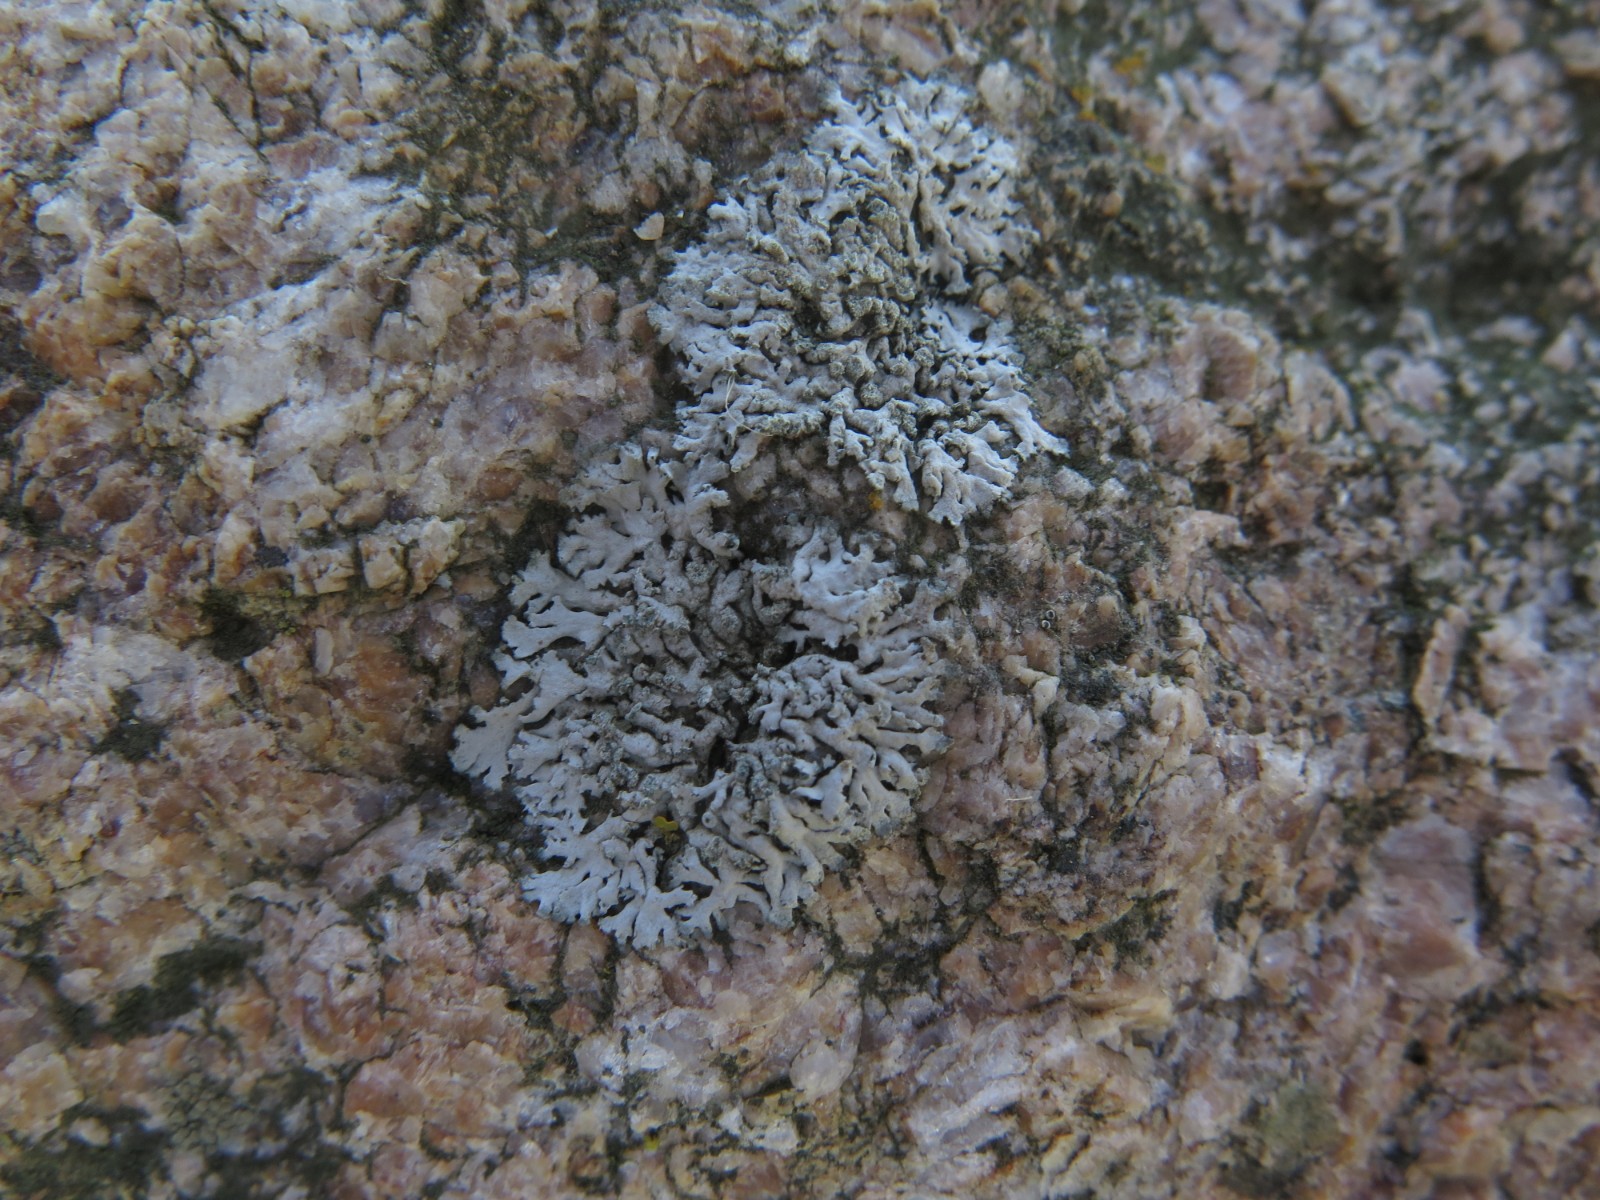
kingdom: Fungi
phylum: Ascomycota
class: Lecanoromycetes
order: Caliciales
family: Physciaceae
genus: Physcia
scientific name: Physcia caesia
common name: blågrå rosetlav
